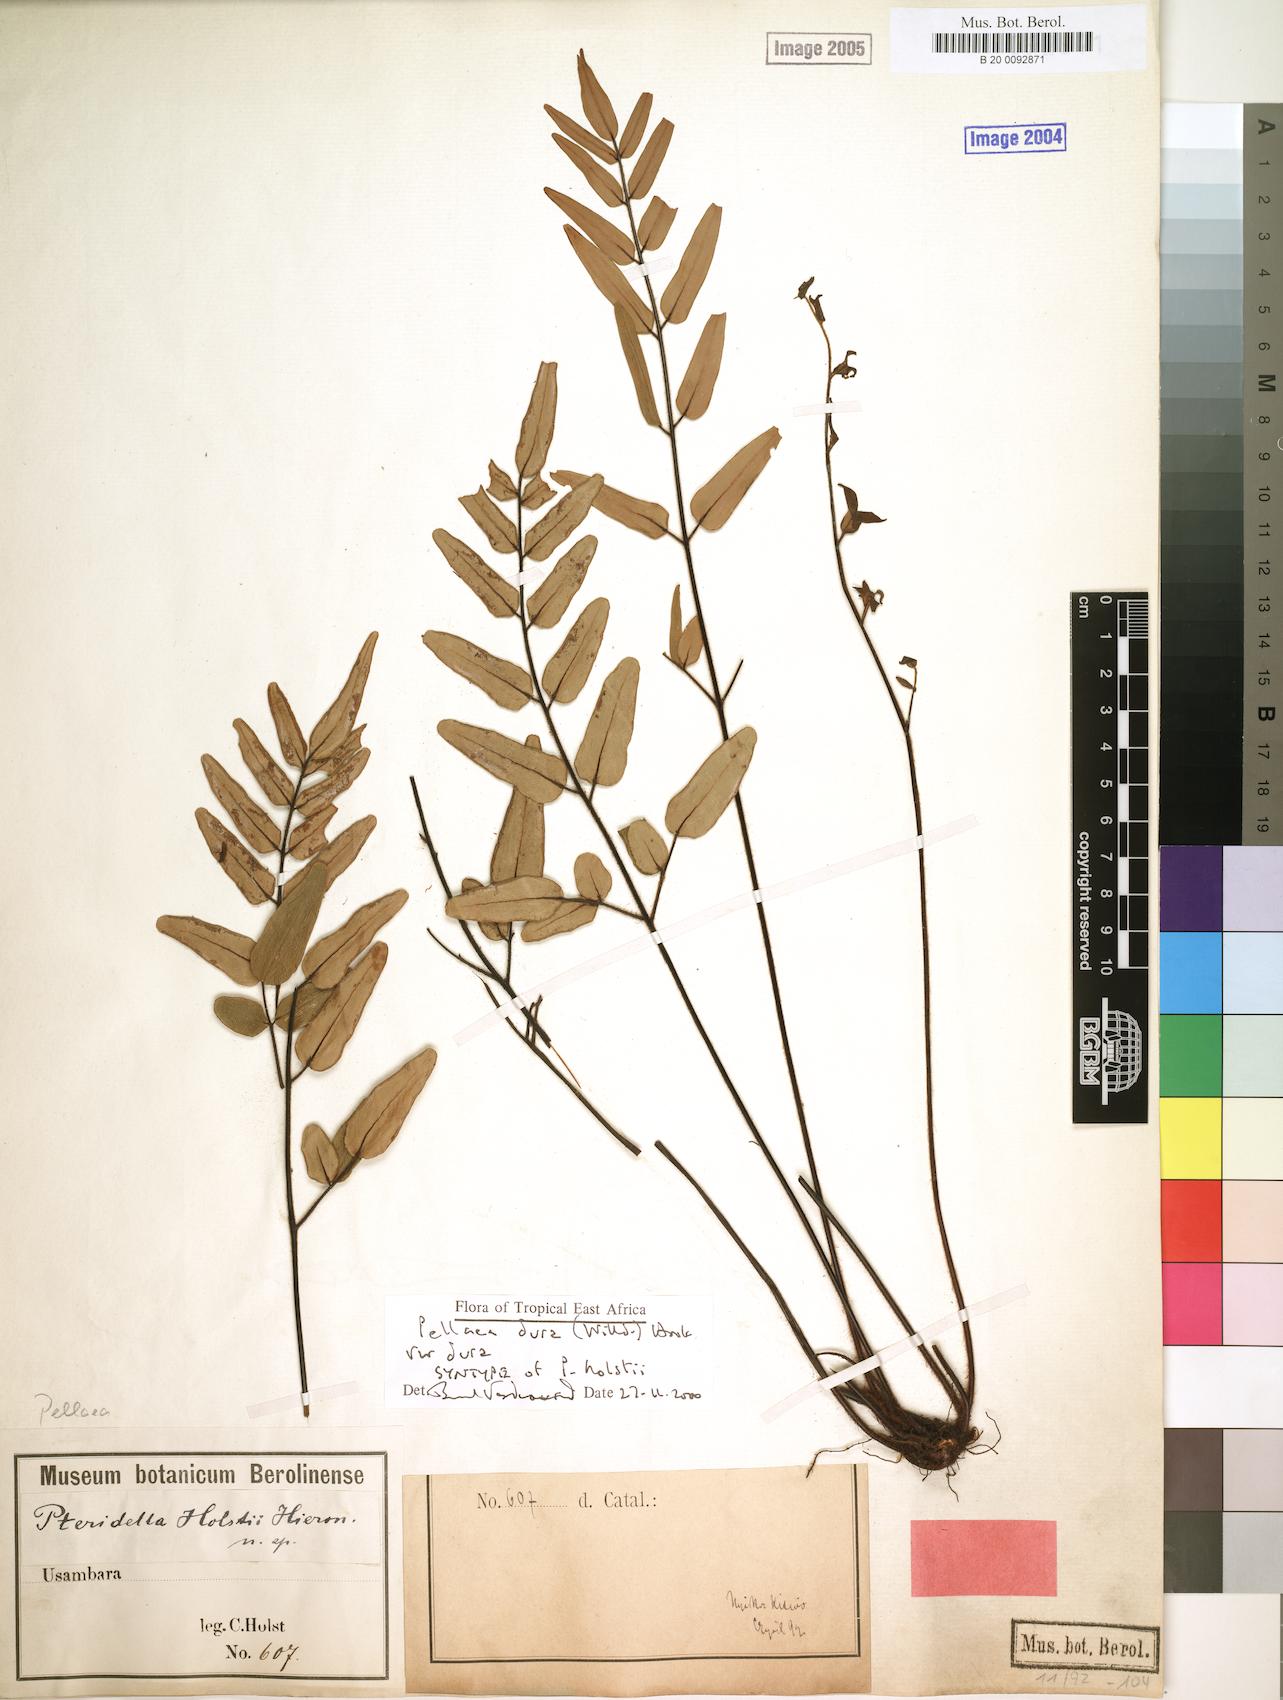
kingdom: Plantae
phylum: Tracheophyta
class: Polypodiopsida
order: Polypodiales
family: Pteridaceae
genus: Pellaea
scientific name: Pellaea dura
